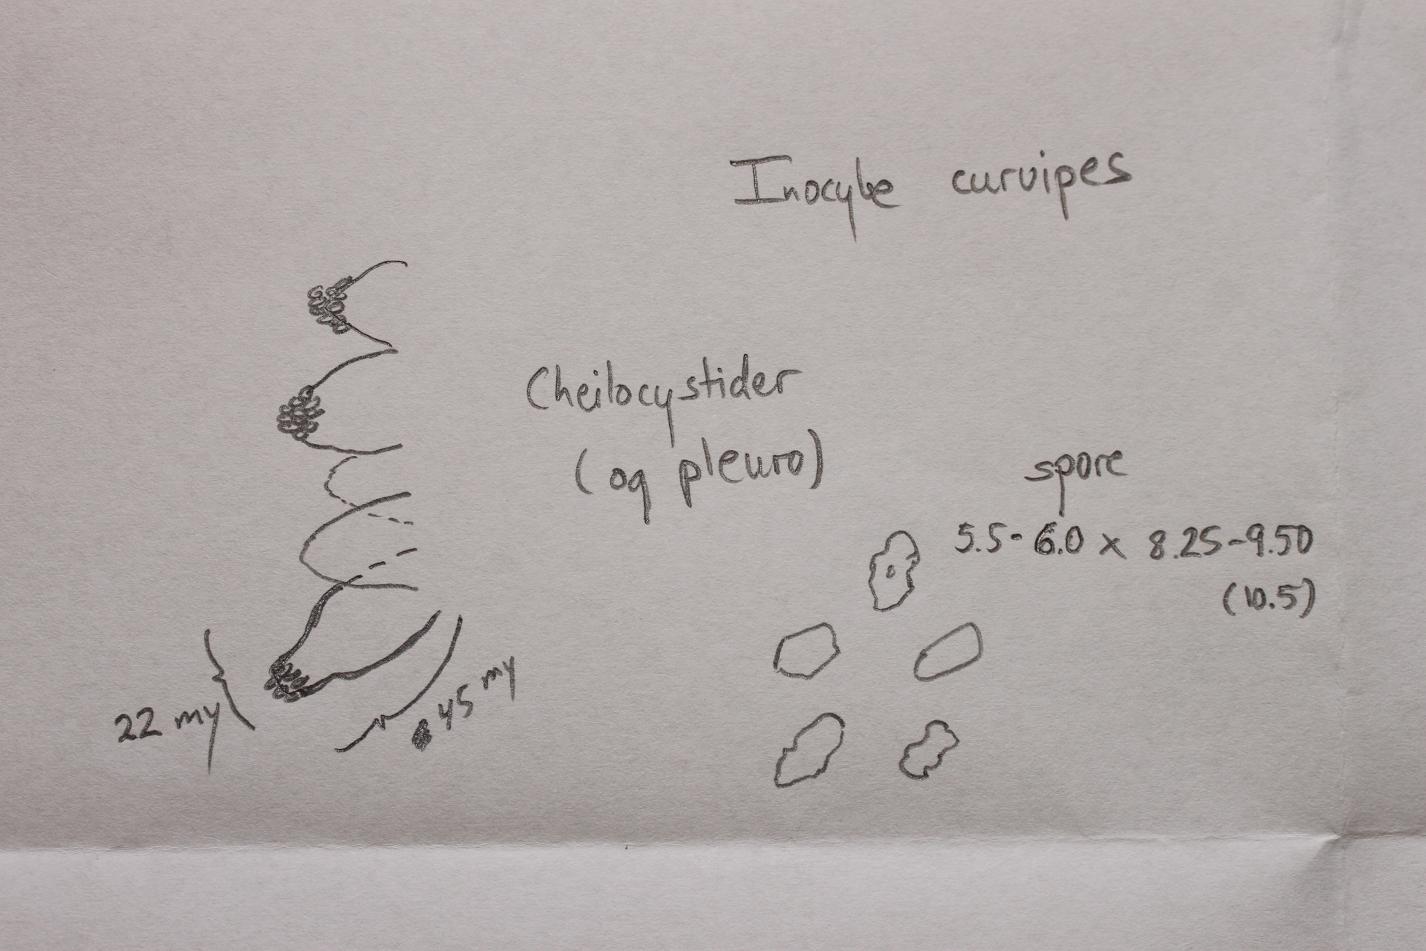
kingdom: Fungi
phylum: Basidiomycota
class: Agaricomycetes
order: Agaricales
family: Inocybaceae
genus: Inocybe
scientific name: Inocybe curvipes
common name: plæne-trævlhat
